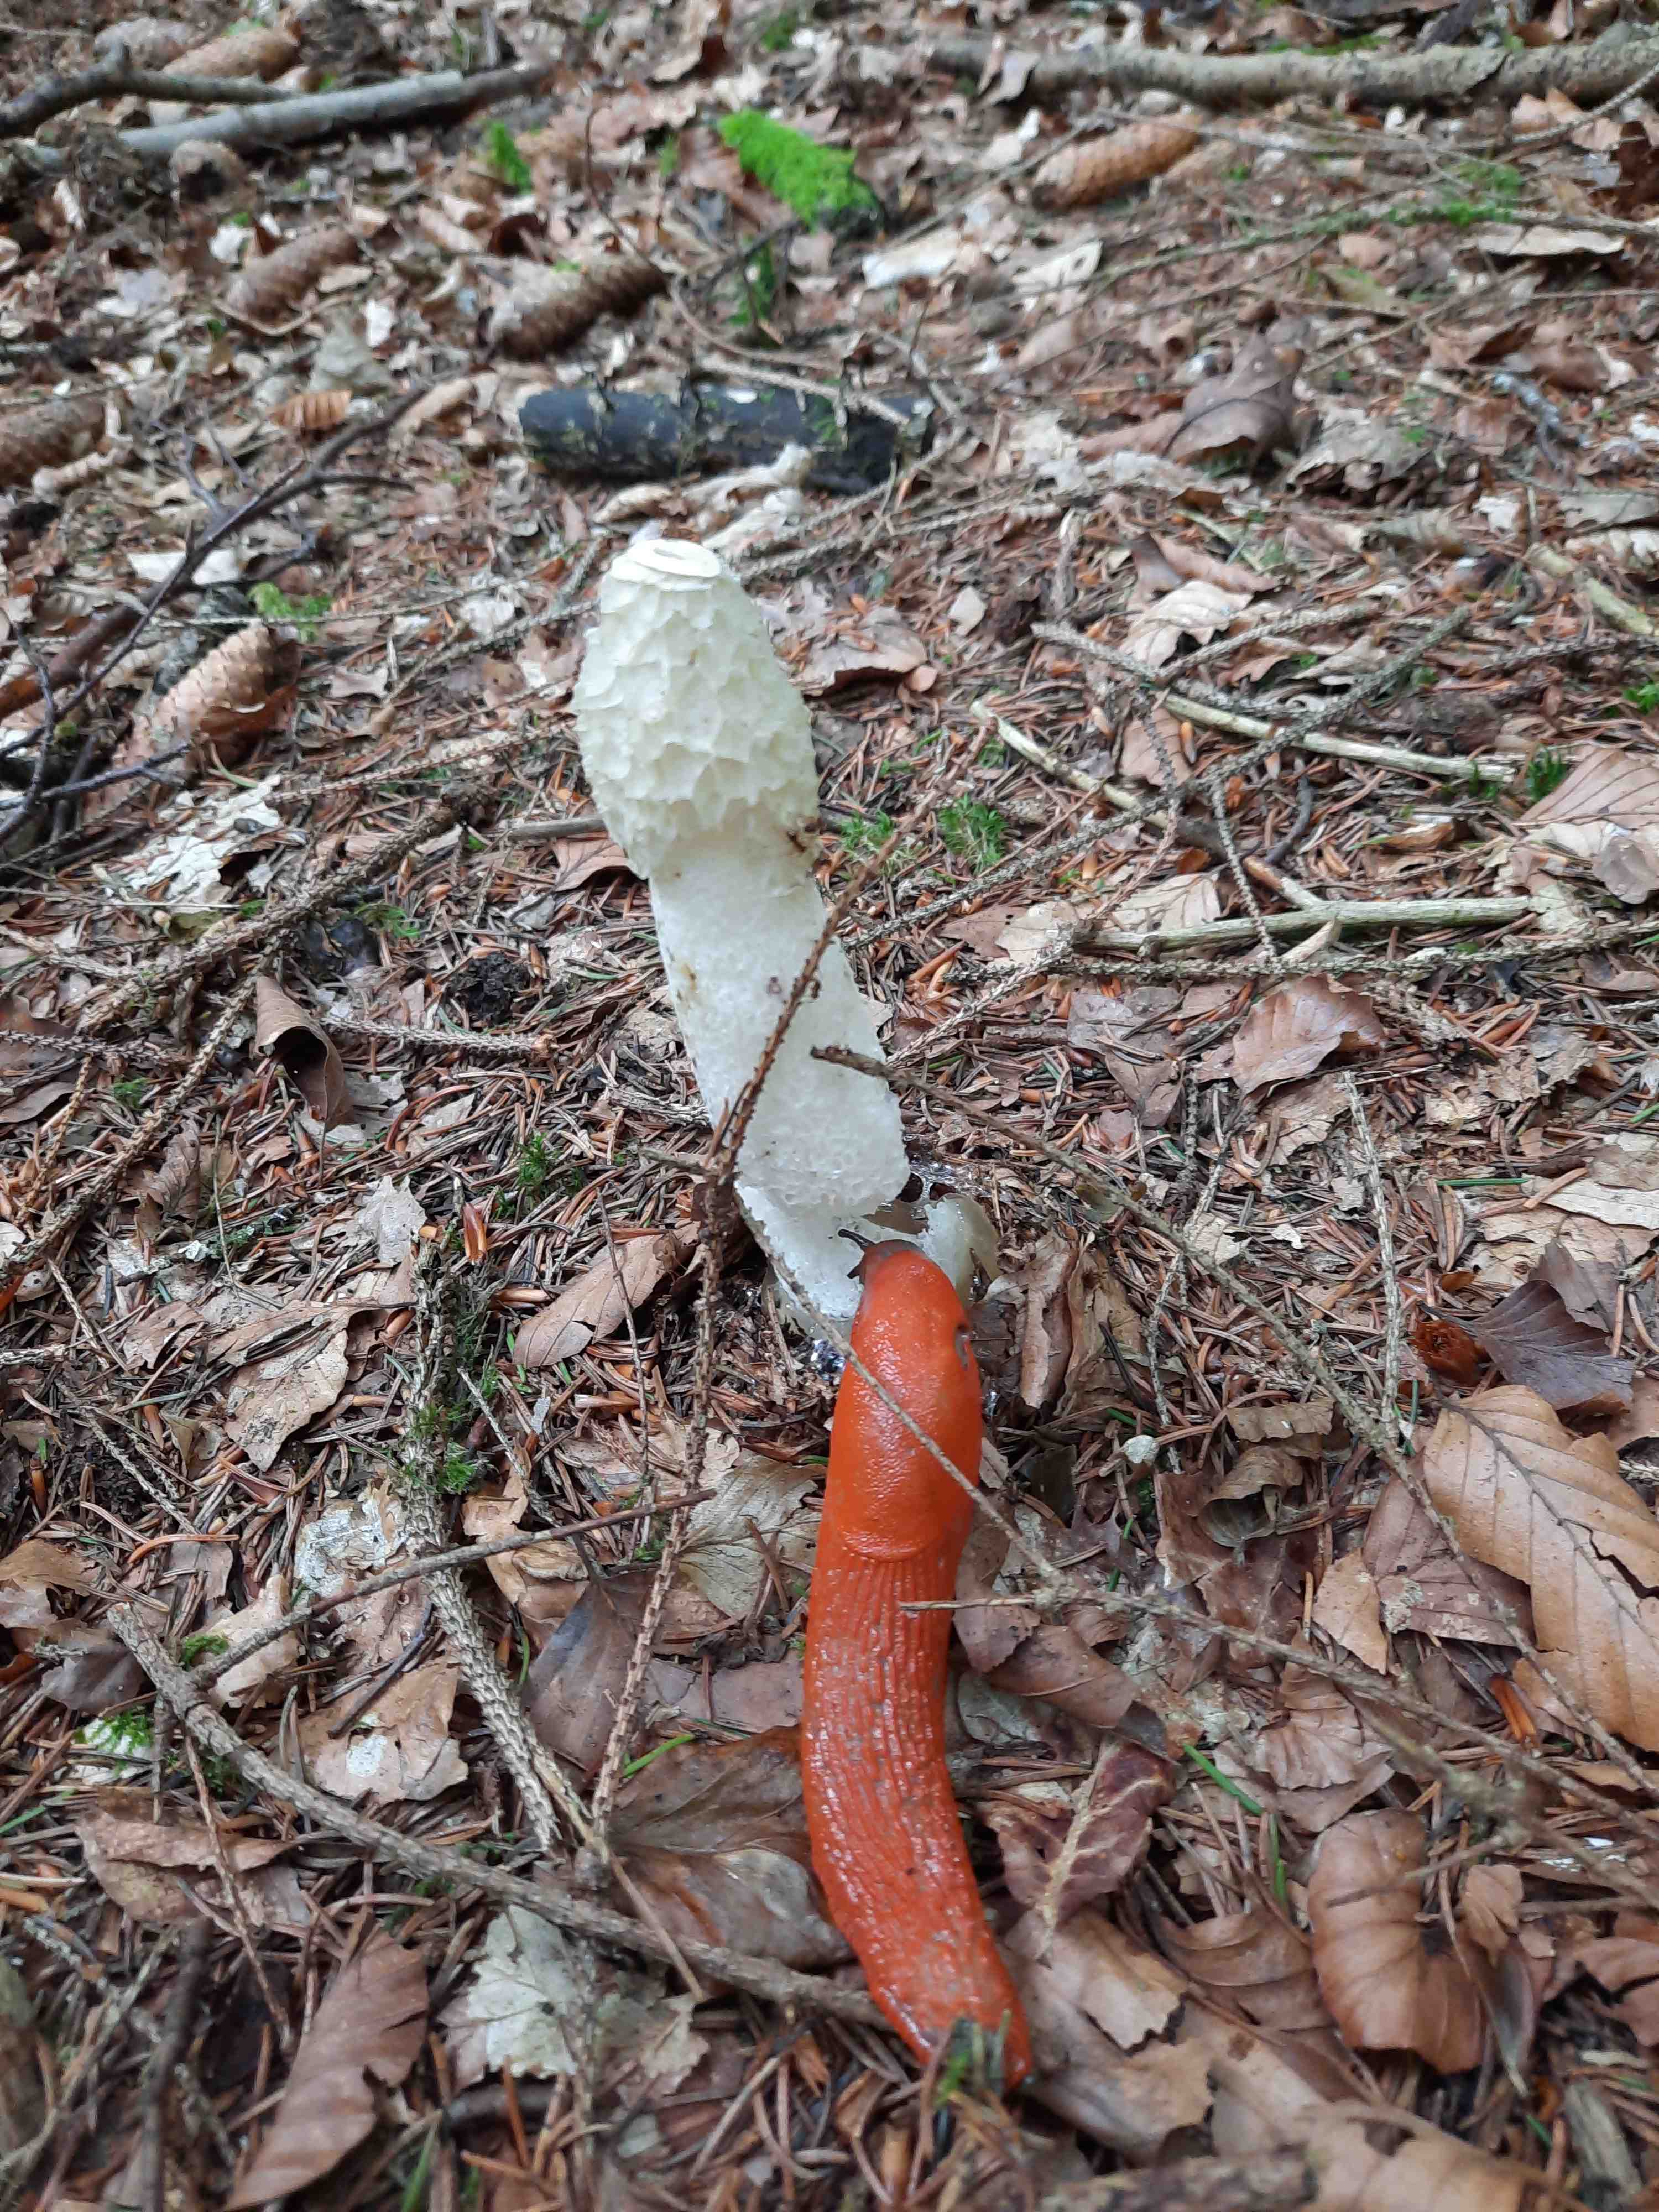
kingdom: Fungi
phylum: Basidiomycota
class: Agaricomycetes
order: Phallales
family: Phallaceae
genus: Phallus
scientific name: Phallus impudicus
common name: almindelig stinksvamp
